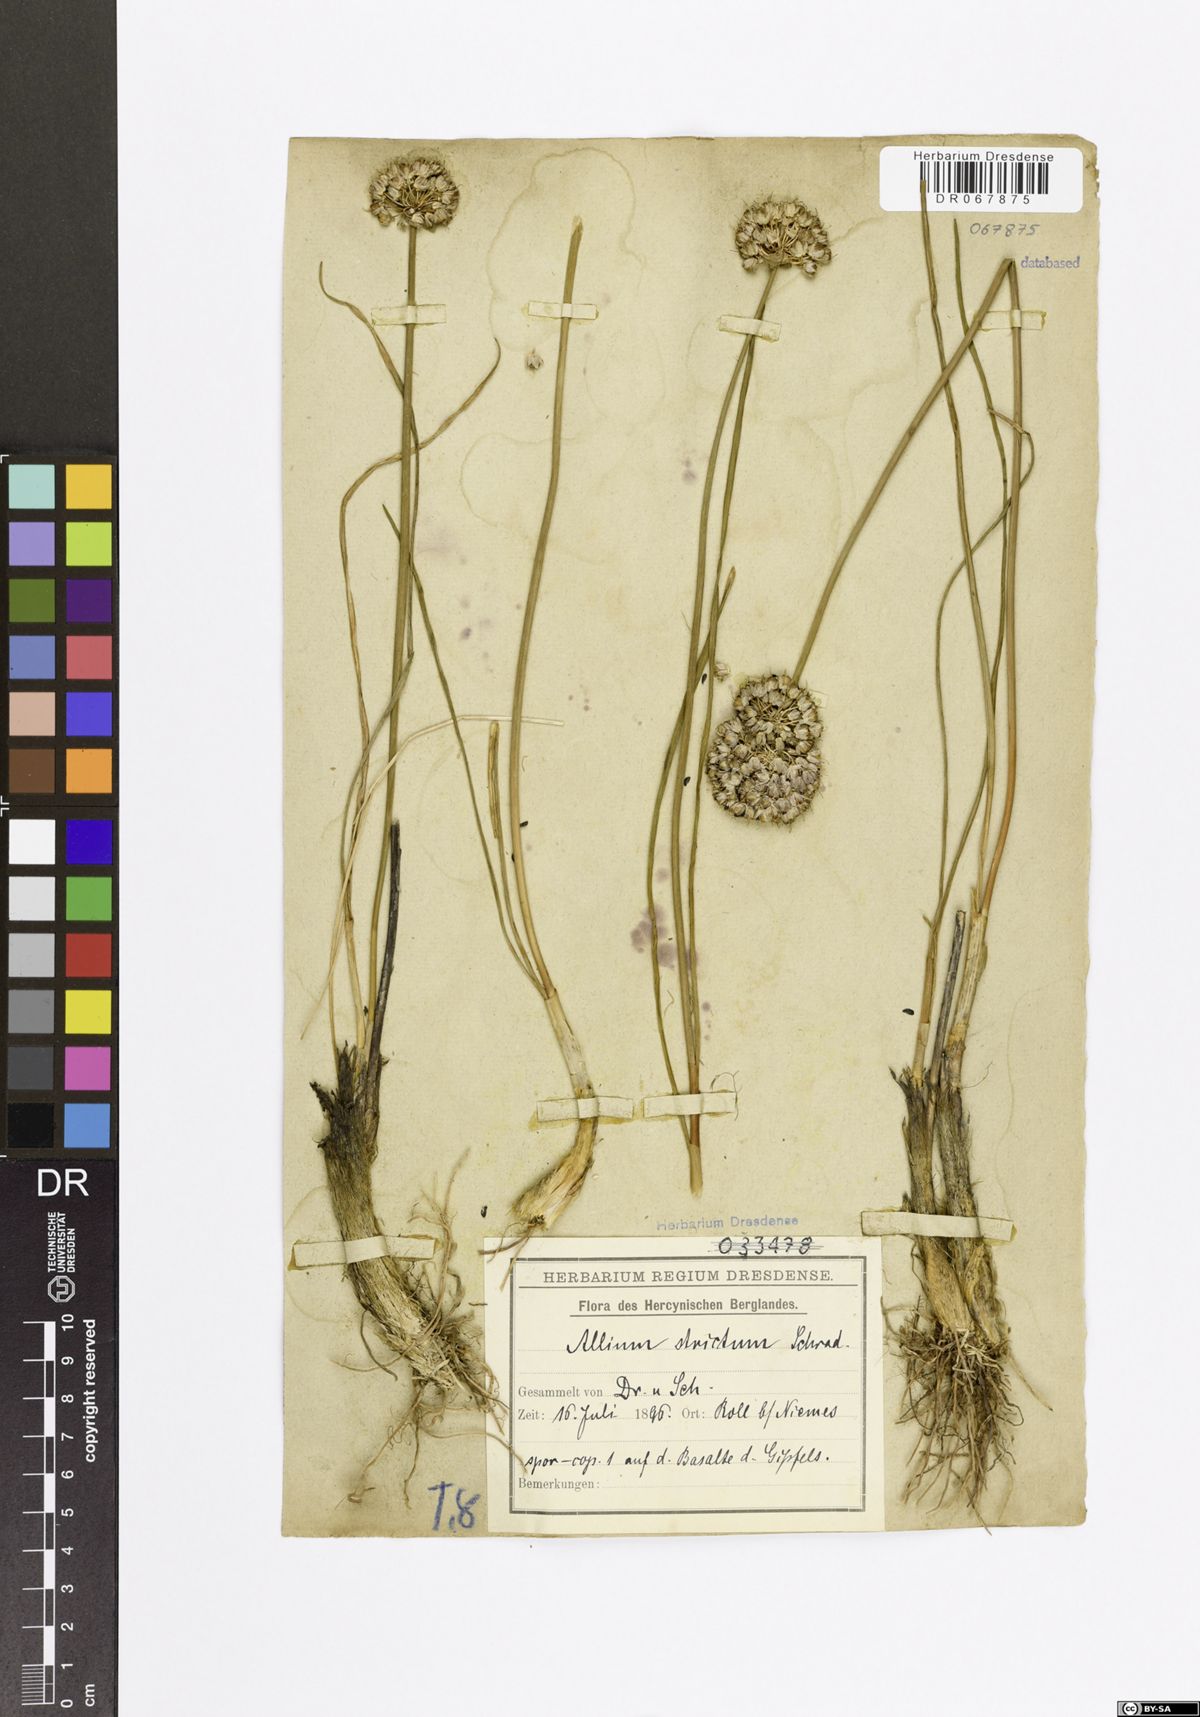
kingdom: Plantae
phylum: Tracheophyta
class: Liliopsida
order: Asparagales
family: Amaryllidaceae
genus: Allium
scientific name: Allium strictum
